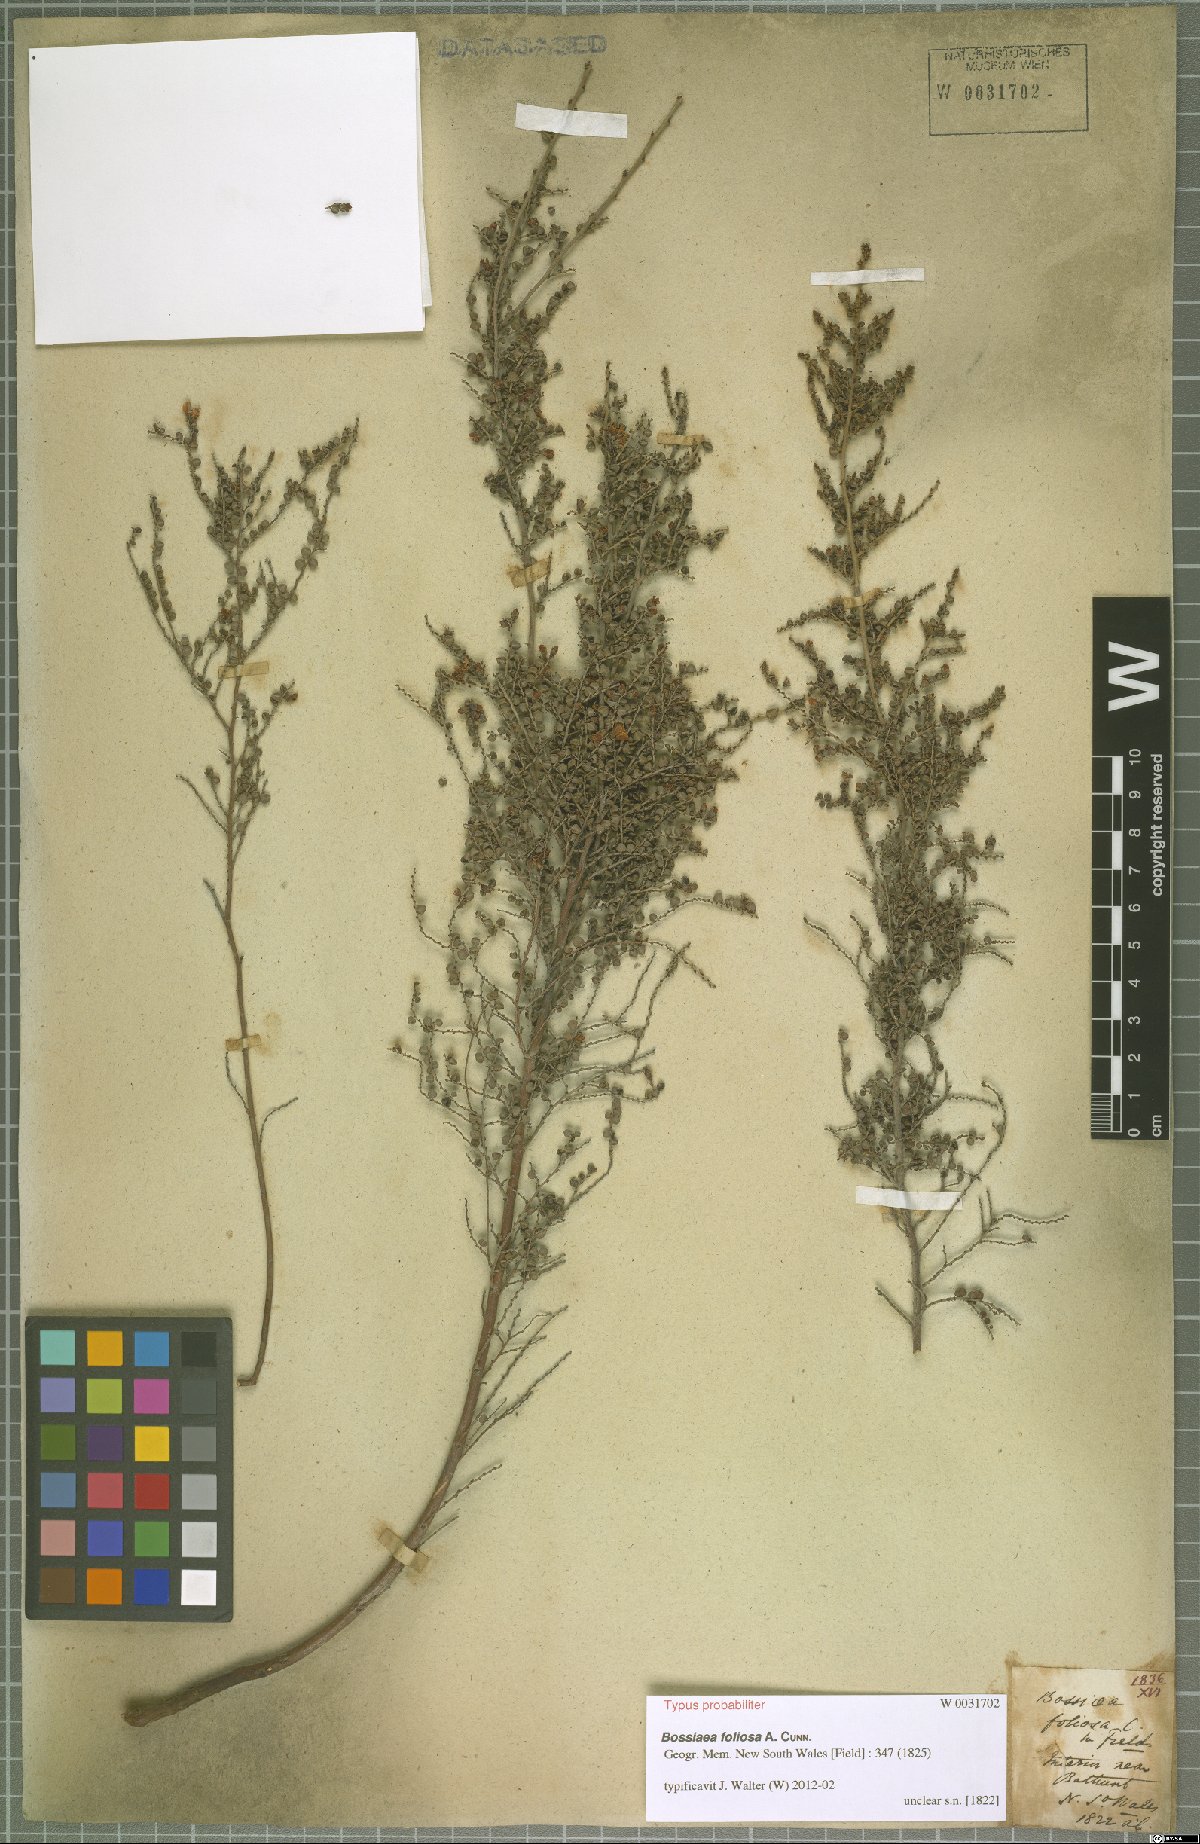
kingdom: Plantae
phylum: Tracheophyta
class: Magnoliopsida
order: Fabales
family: Fabaceae
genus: Bossiaea
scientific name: Bossiaea foliosa
